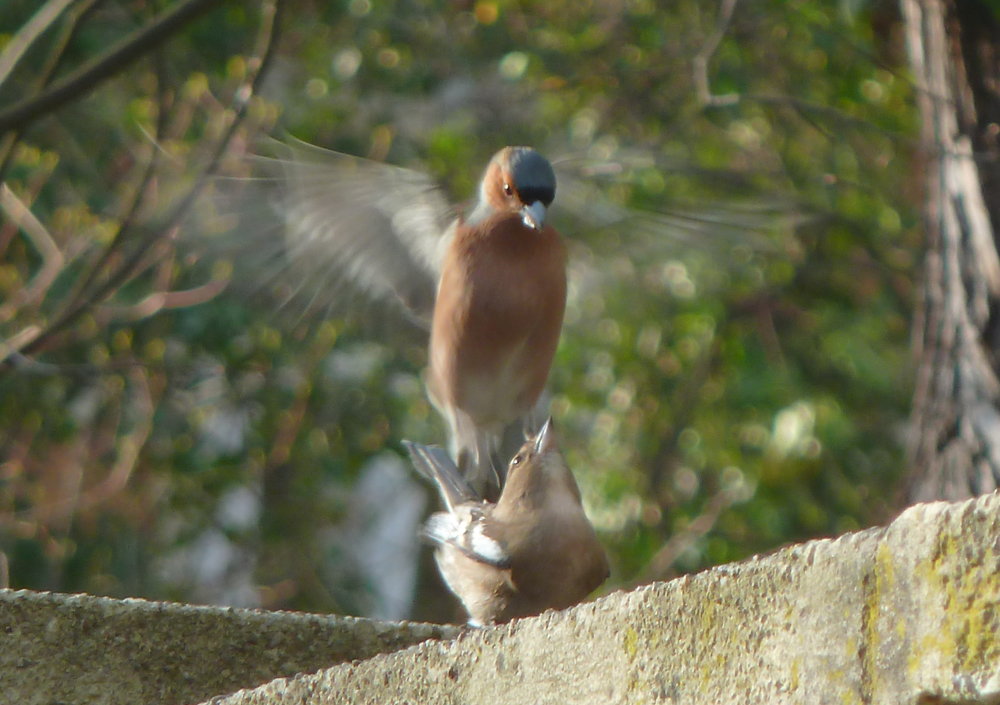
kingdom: Animalia
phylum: Chordata
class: Aves
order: Passeriformes
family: Fringillidae
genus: Fringilla
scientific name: Fringilla coelebs
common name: Common chaffinch
